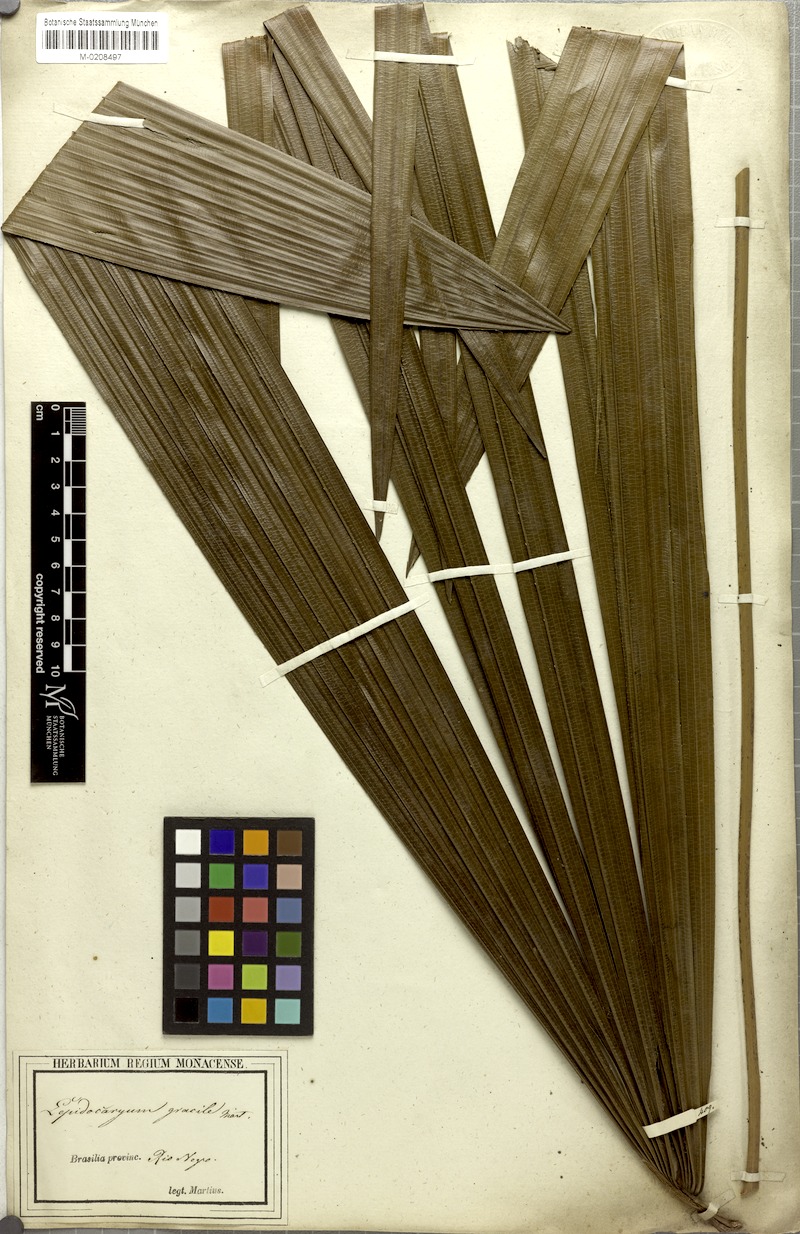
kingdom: Plantae
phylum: Tracheophyta
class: Liliopsida
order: Arecales
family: Arecaceae
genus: Lepidocaryum
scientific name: Lepidocaryum tenue
